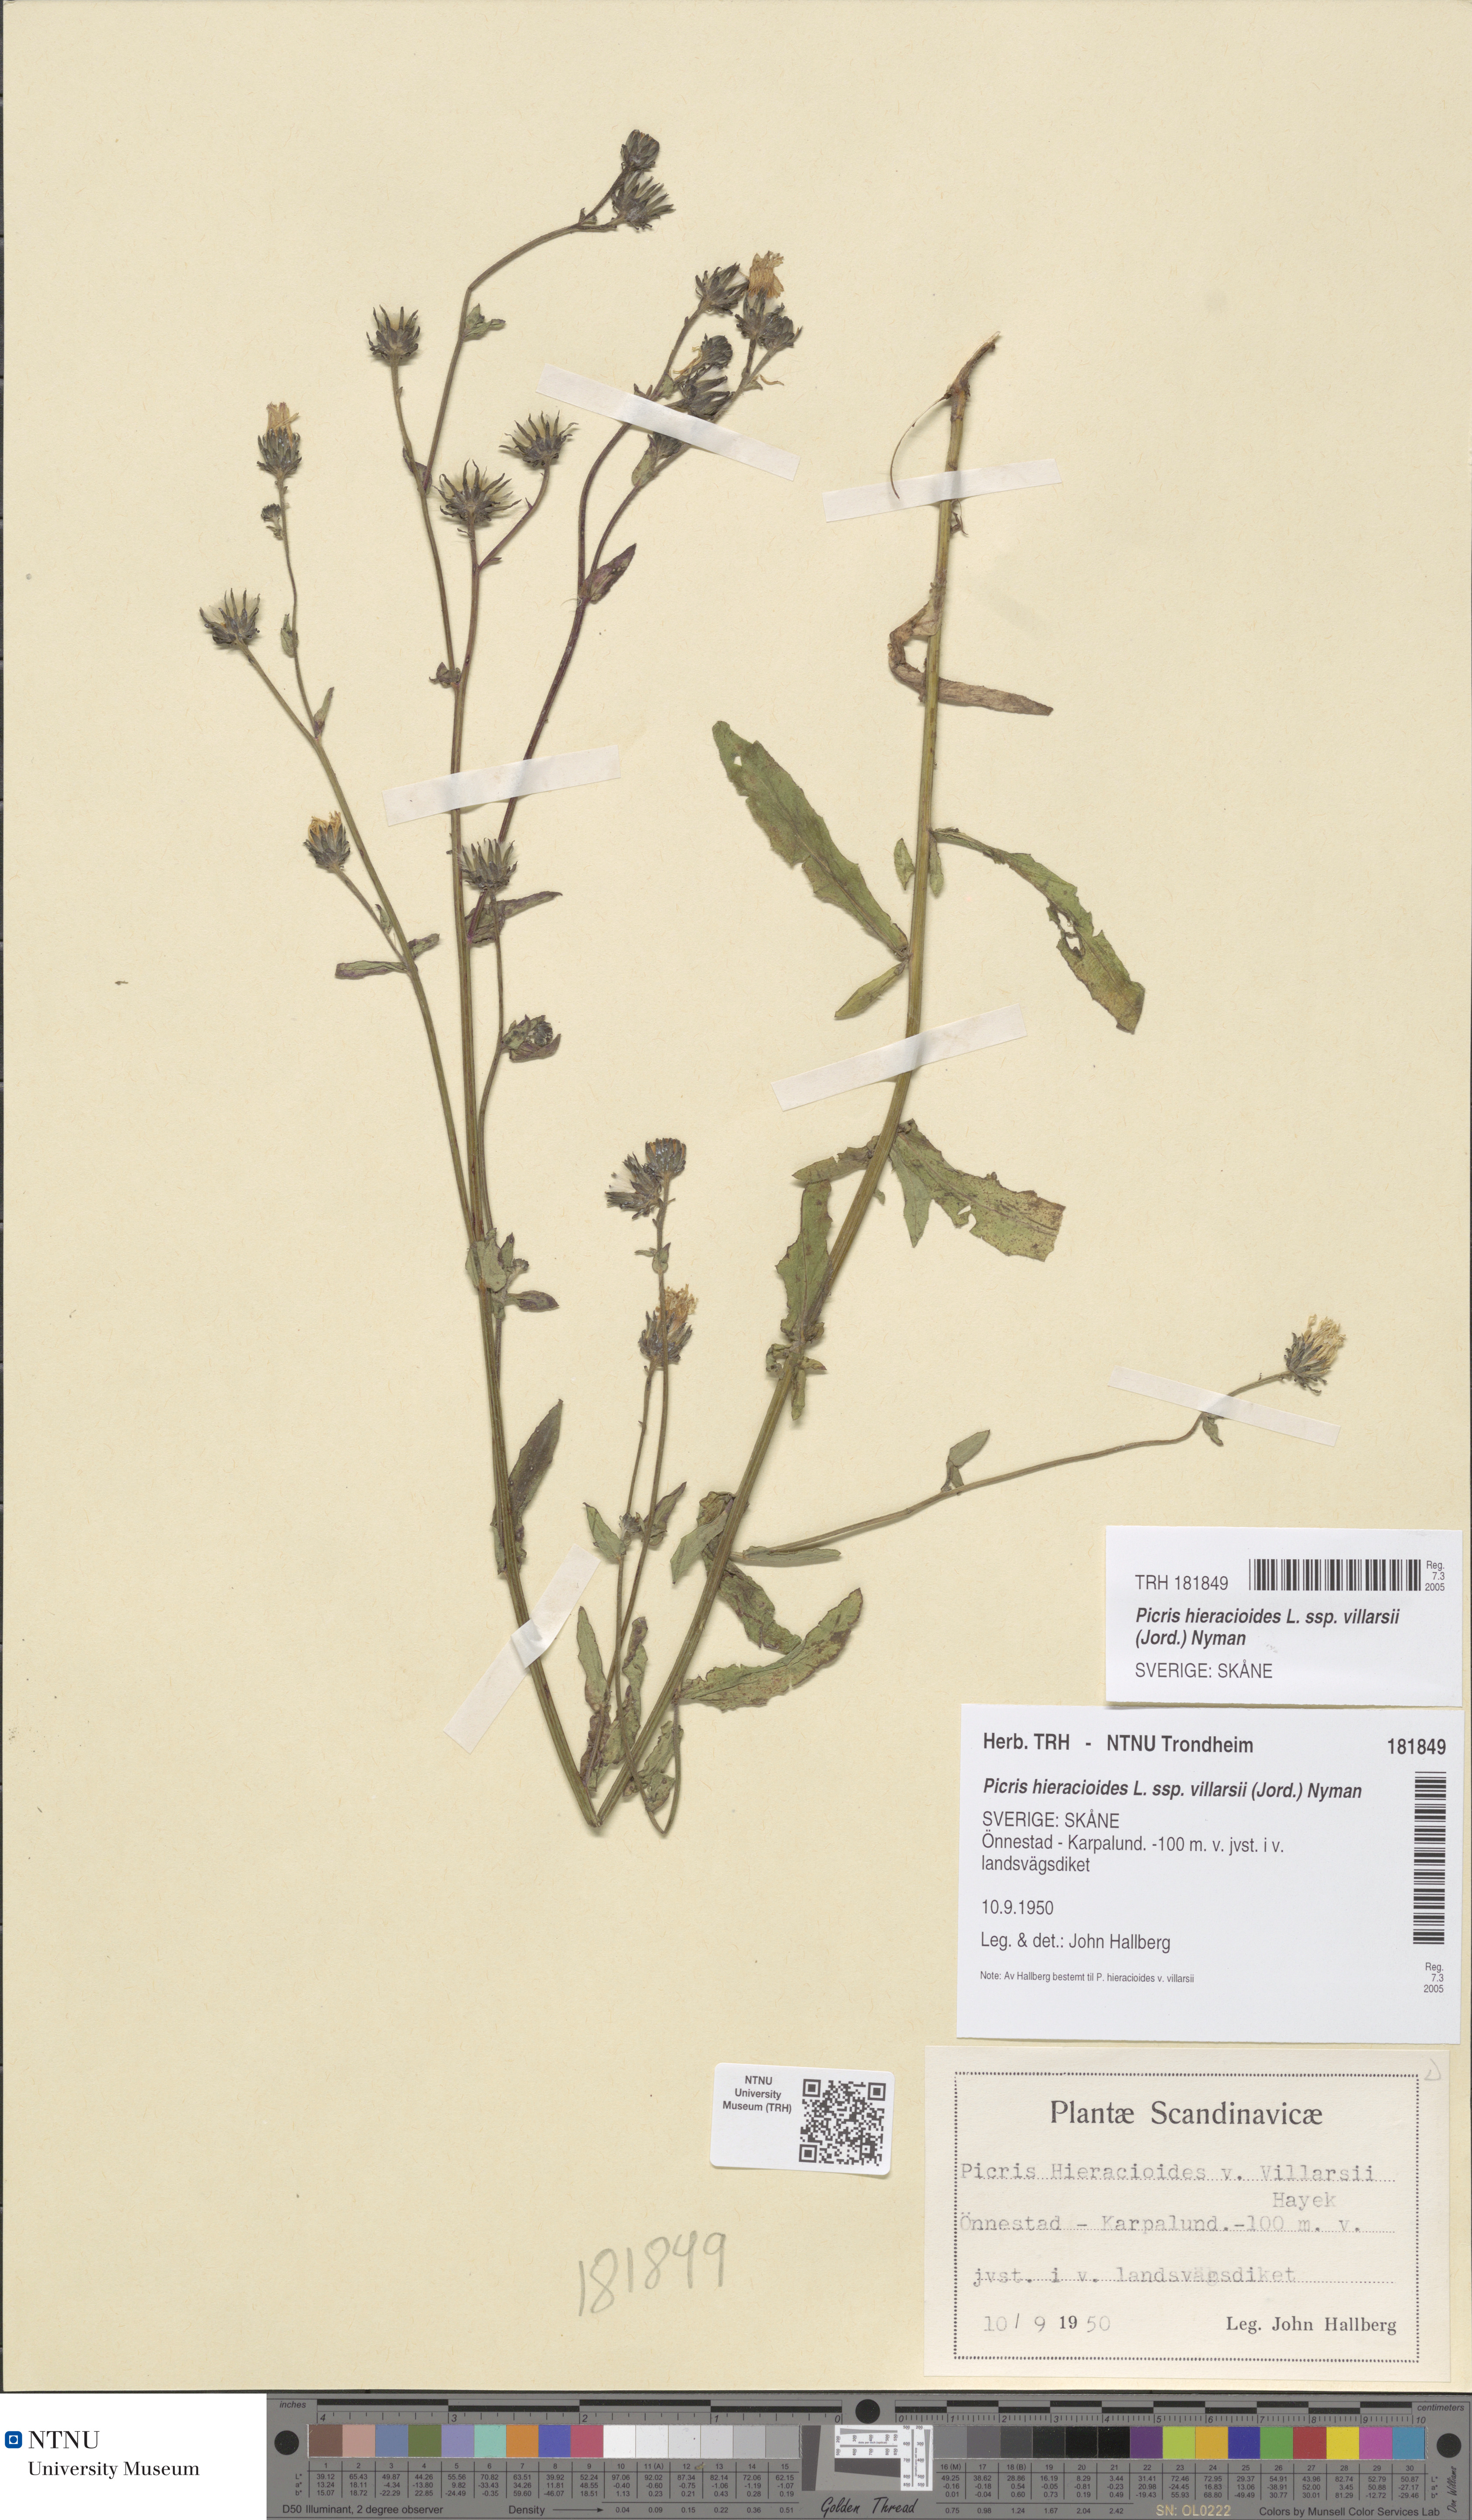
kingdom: Plantae
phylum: Tracheophyta
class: Magnoliopsida
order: Asterales
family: Asteraceae
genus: Picris
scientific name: Picris hieracioides
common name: Hawkweed oxtongue
